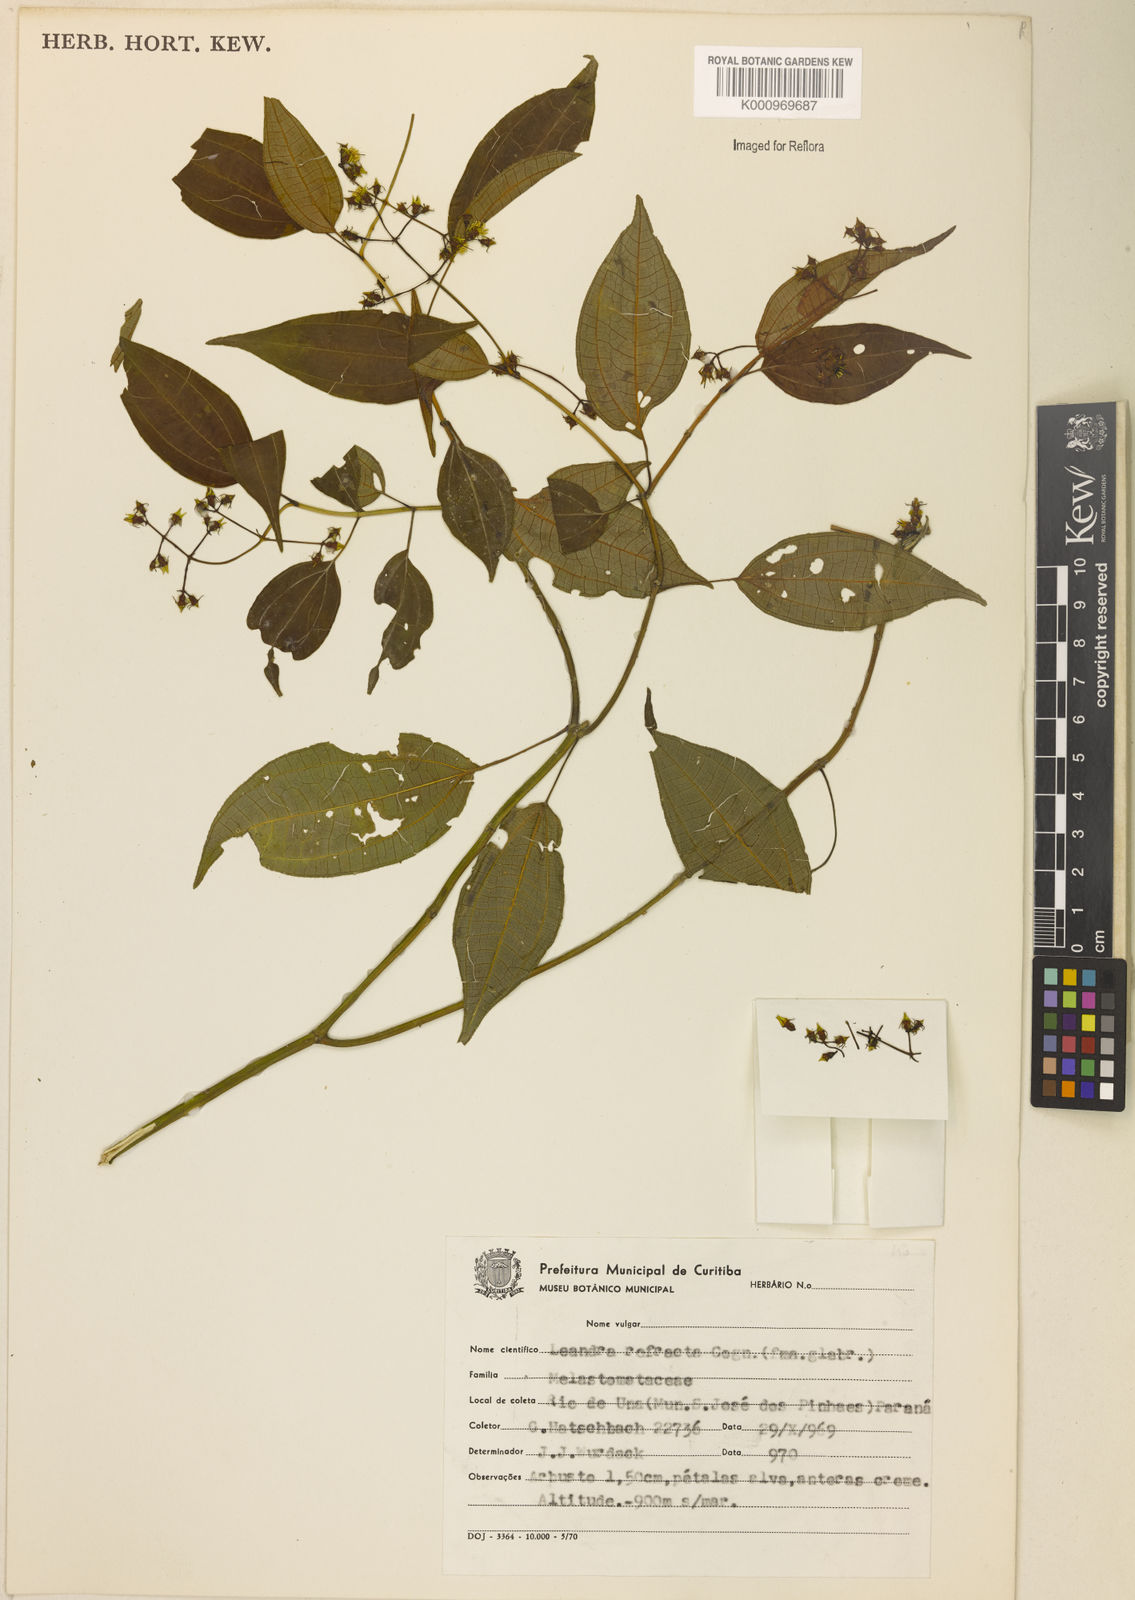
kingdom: Plantae
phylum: Tracheophyta
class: Magnoliopsida
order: Myrtales
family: Melastomataceae
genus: Miconia
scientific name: Miconia refracta
